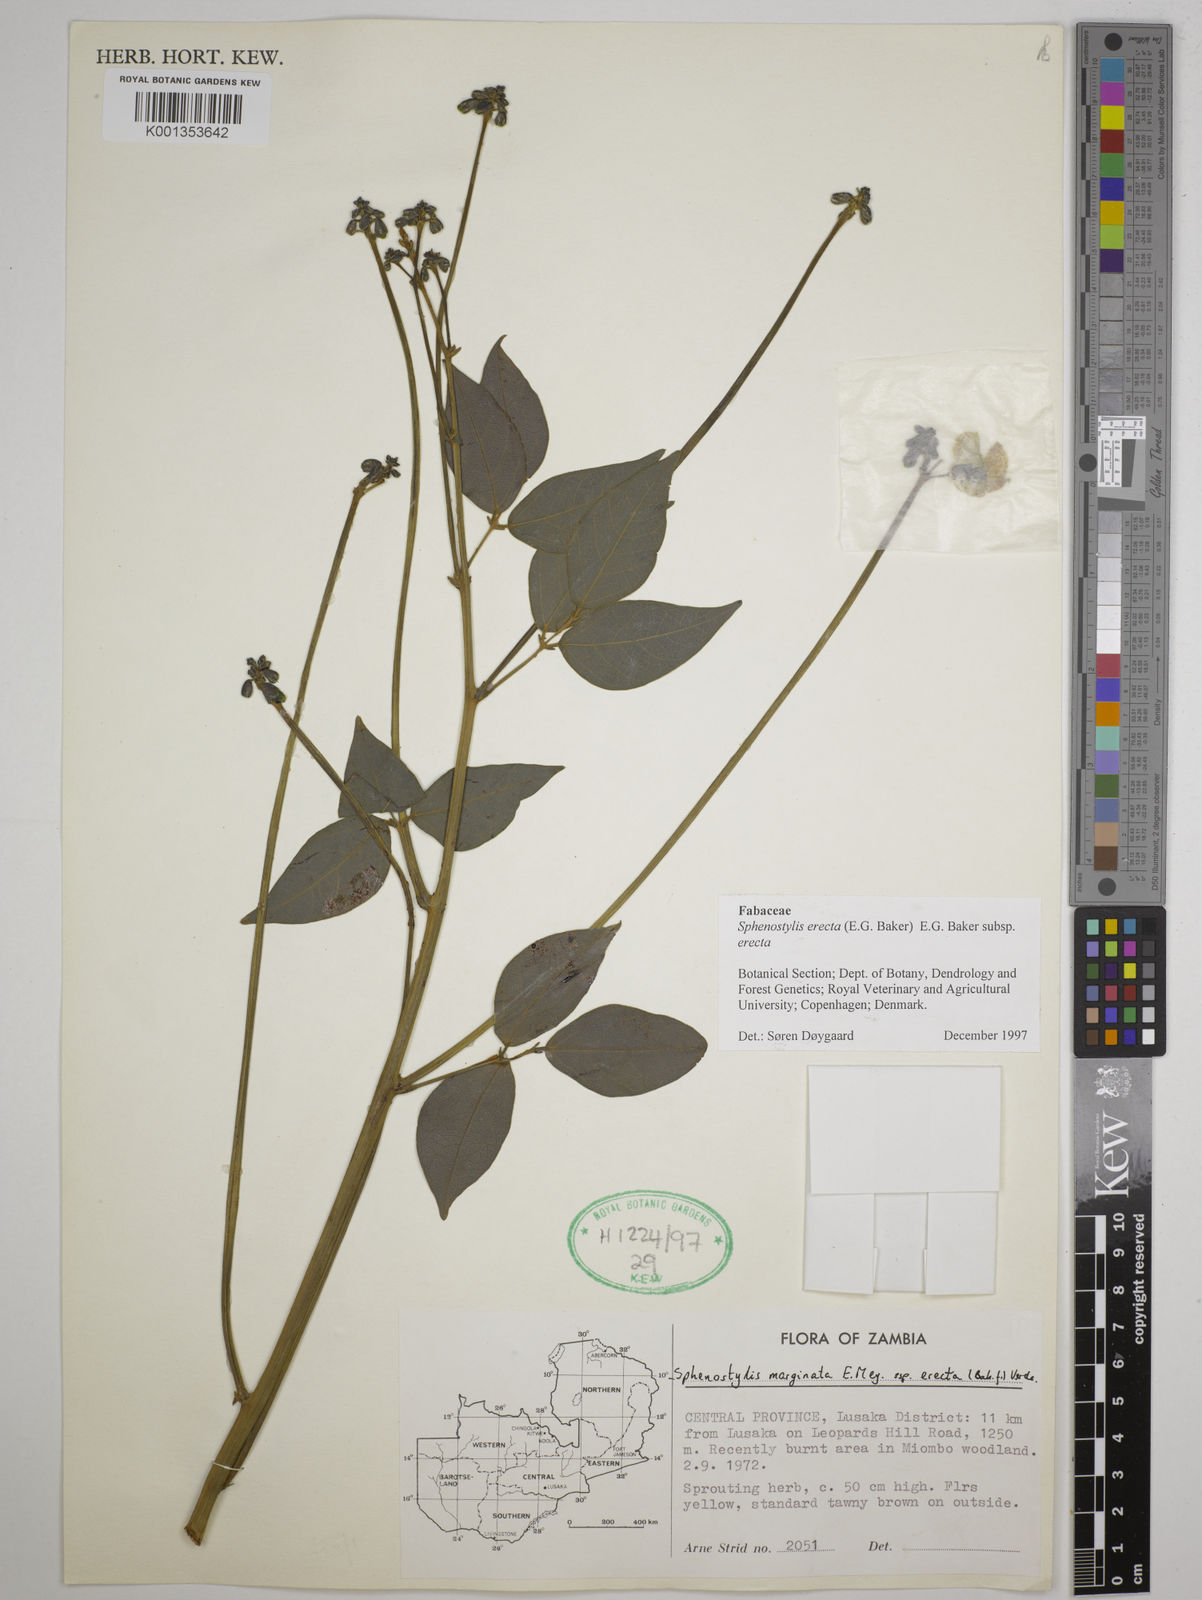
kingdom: Plantae
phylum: Tracheophyta
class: Magnoliopsida
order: Fabales
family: Fabaceae
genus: Sphenostylis
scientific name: Sphenostylis erecta
